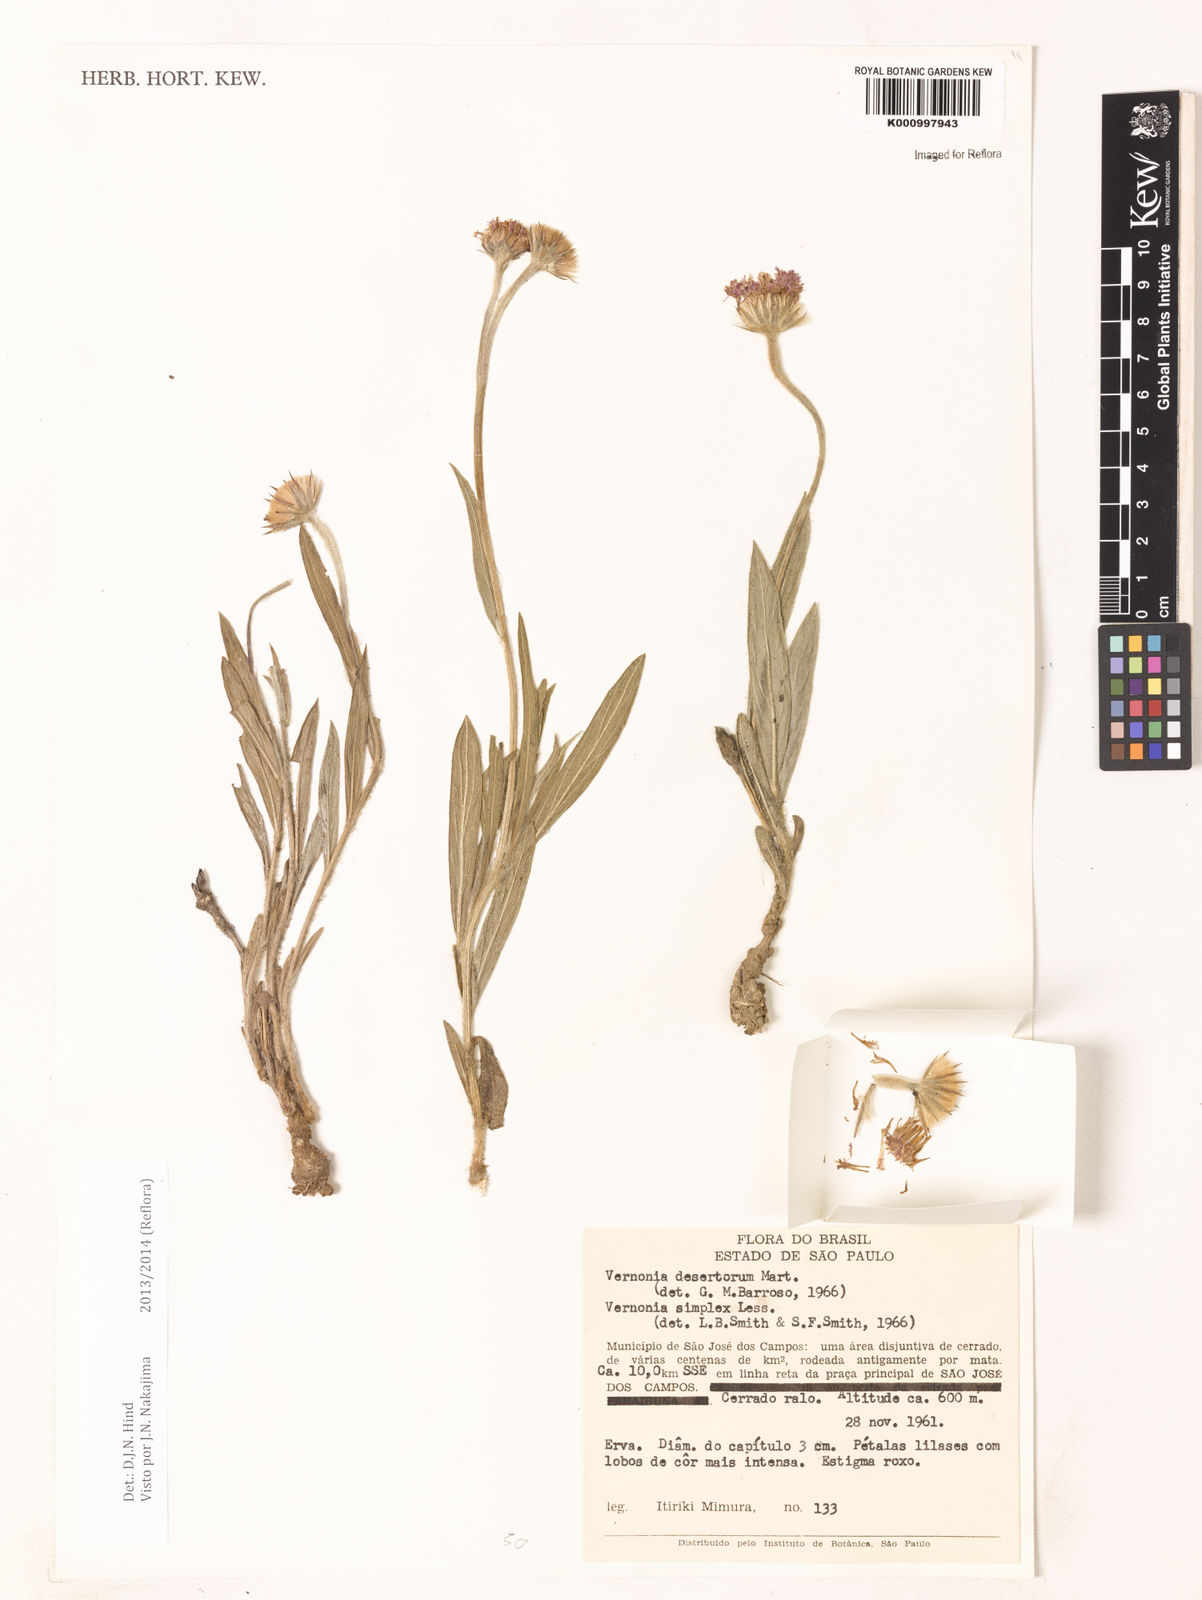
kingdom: Plantae
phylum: Tracheophyta
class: Magnoliopsida
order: Asterales
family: Asteraceae
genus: Chrysolaena
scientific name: Chrysolaena desertorum
